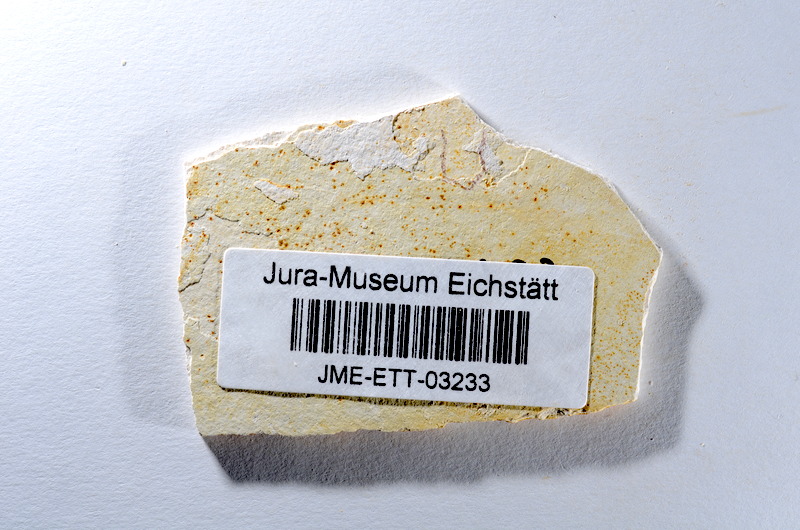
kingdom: Animalia
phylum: Chordata
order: Salmoniformes
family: Orthogonikleithridae
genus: Orthogonikleithrus
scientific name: Orthogonikleithrus hoelli
